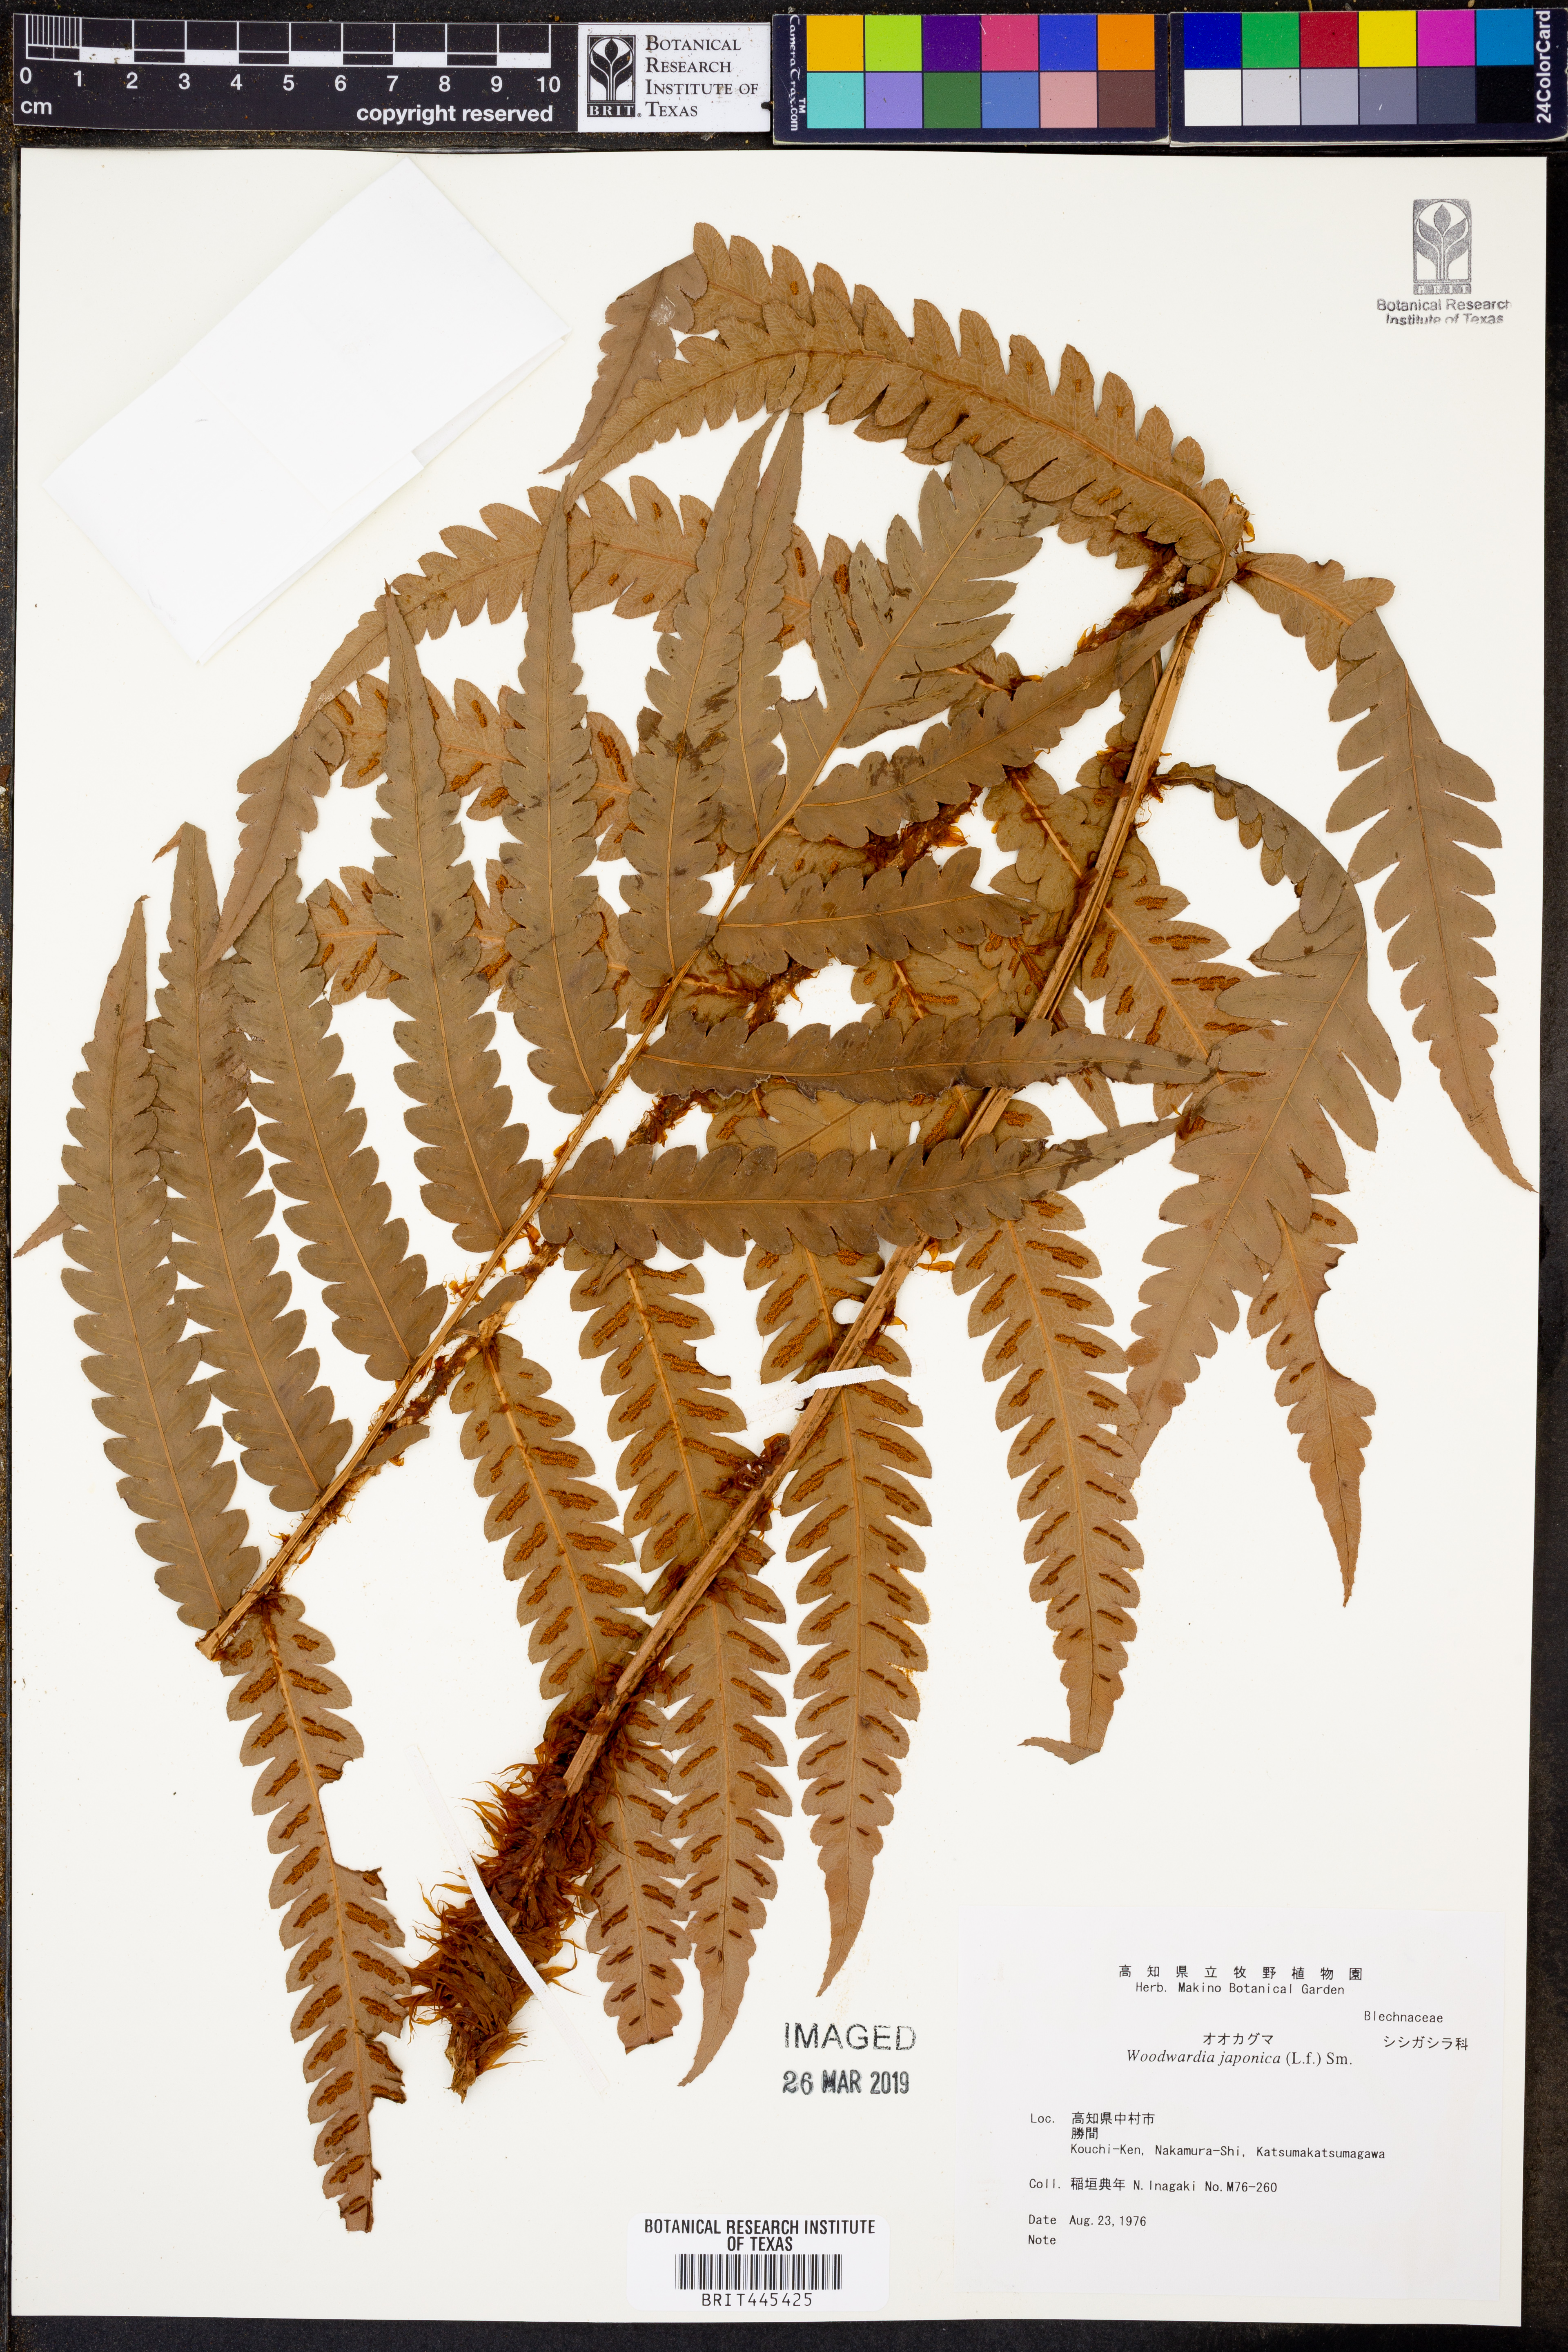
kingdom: Plantae
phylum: Tracheophyta
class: Polypodiopsida
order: Polypodiales
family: Blechnaceae
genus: Woodwardia
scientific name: Woodwardia japonica
